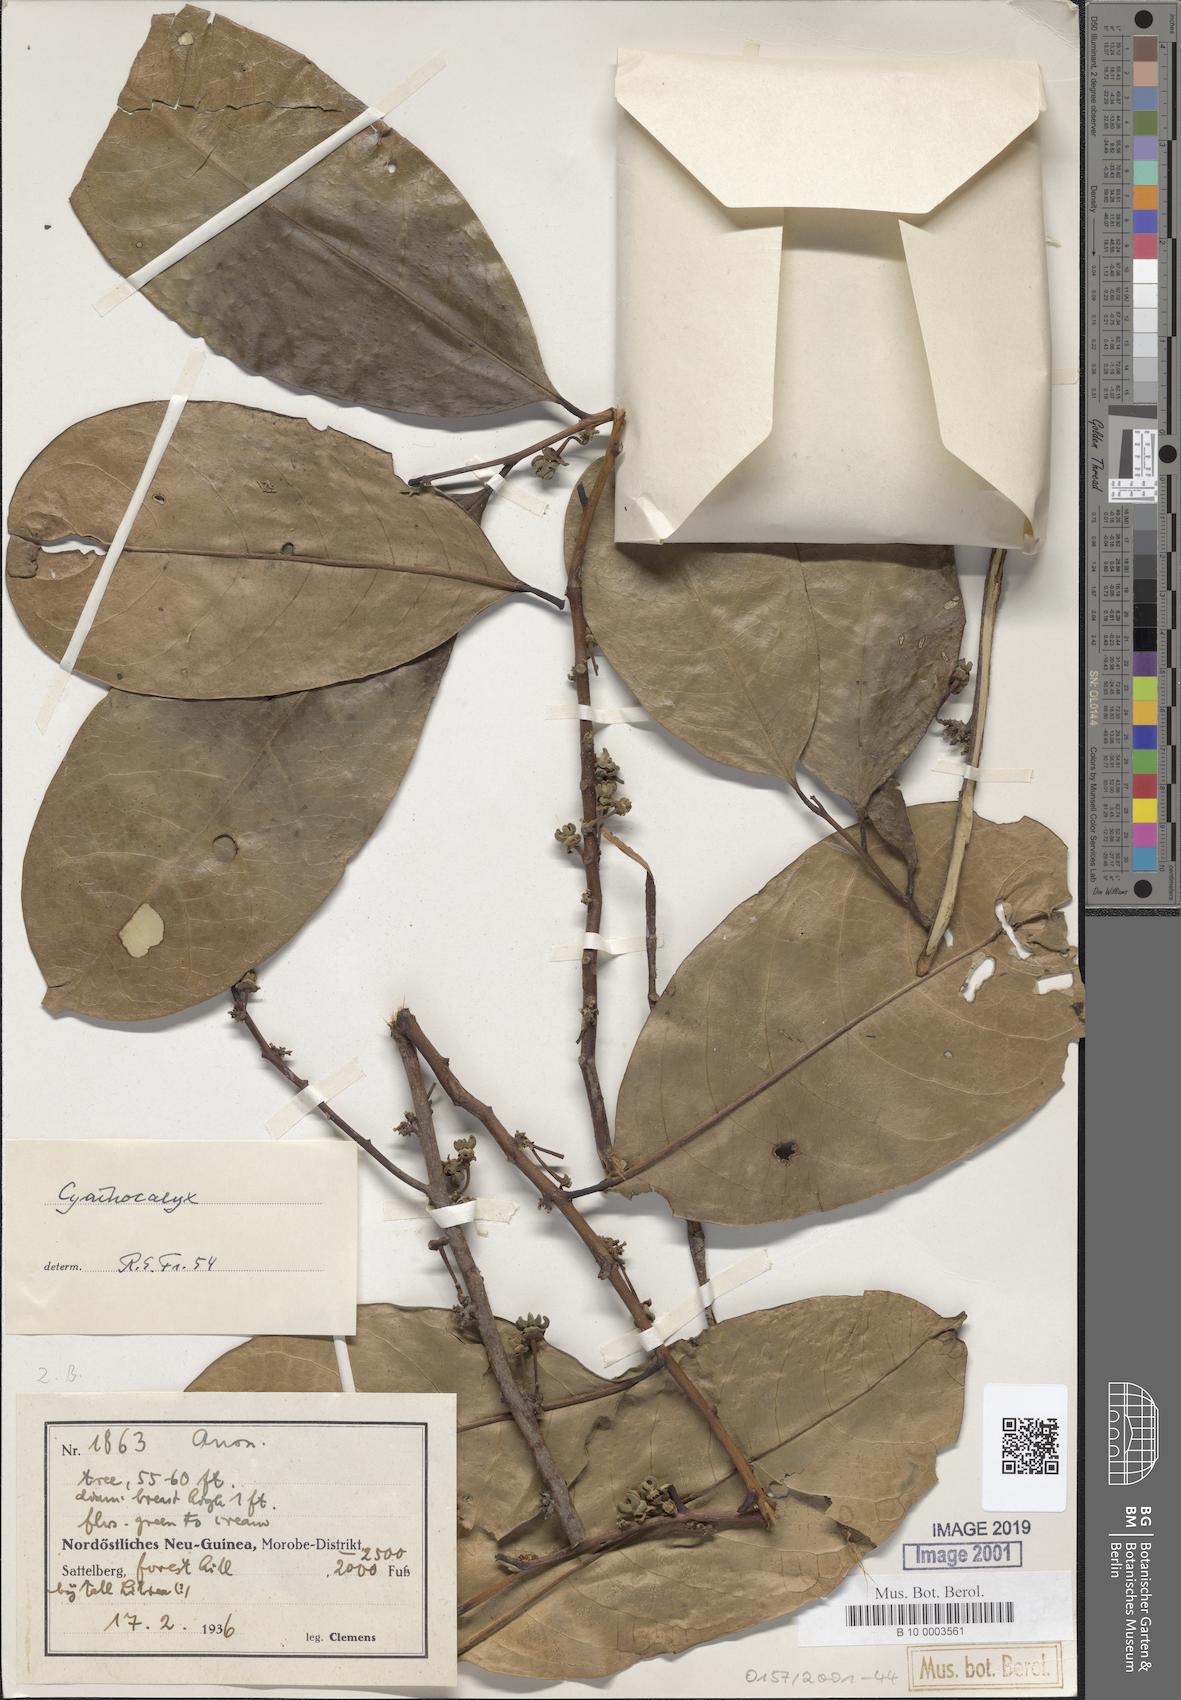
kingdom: Plantae
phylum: Tracheophyta
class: Magnoliopsida
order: Magnoliales
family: Annonaceae
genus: Cyathocalyx
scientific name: Cyathocalyx
